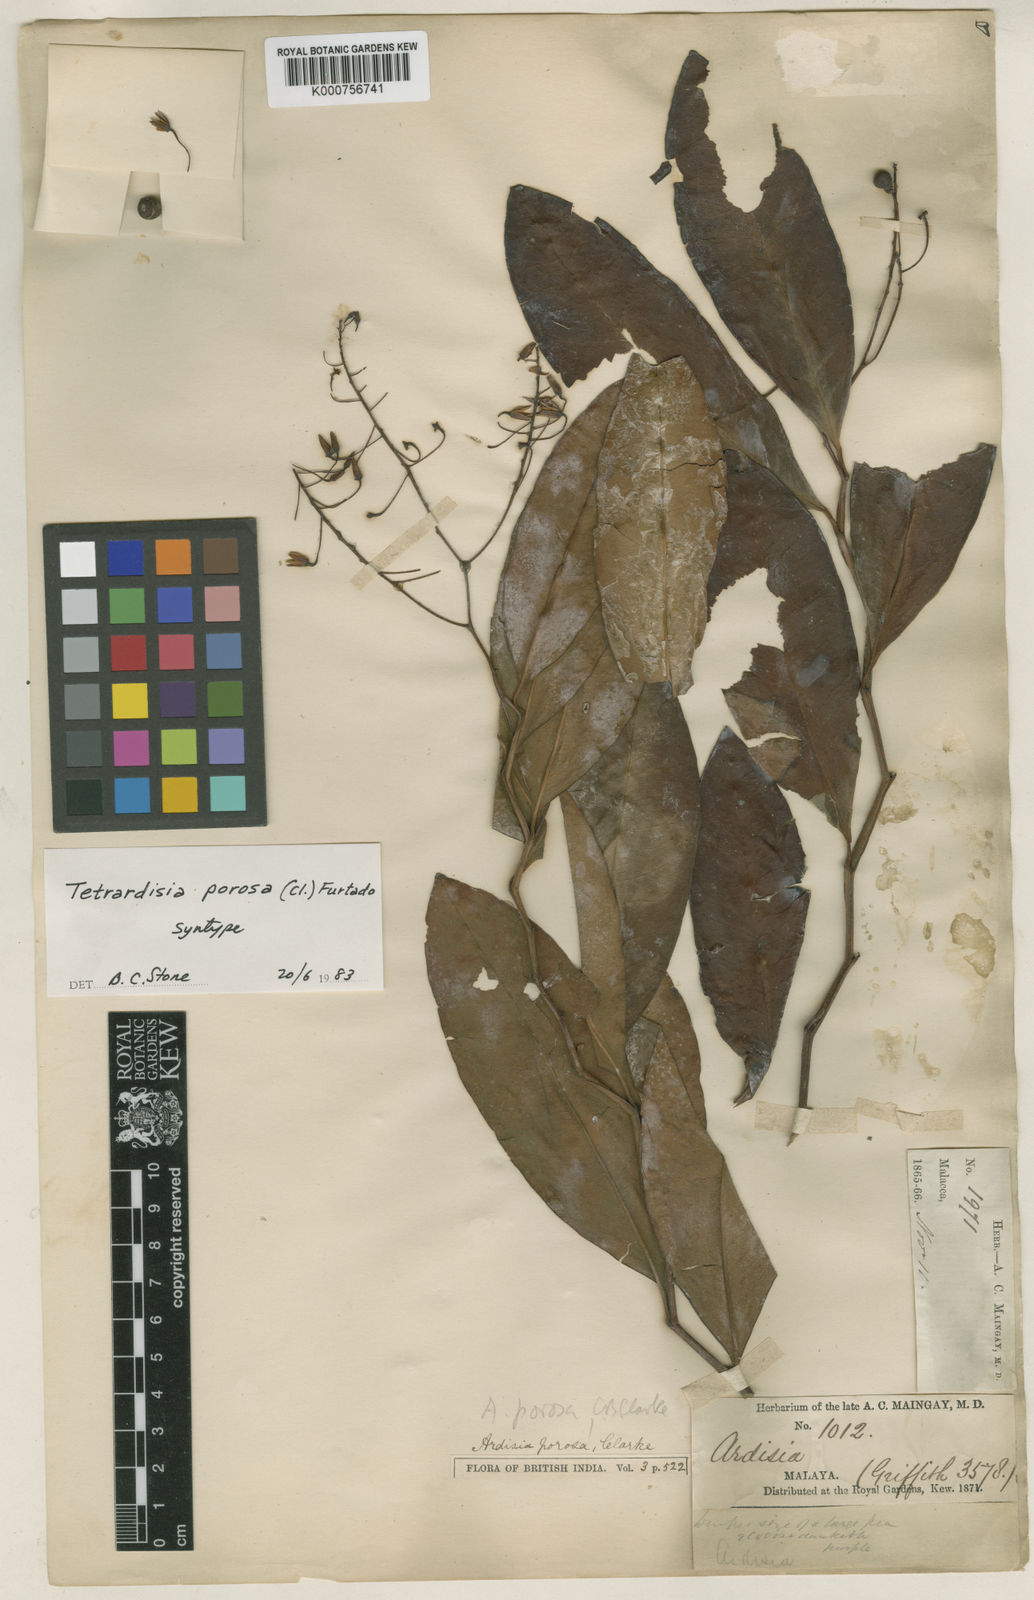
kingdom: Plantae
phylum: Tracheophyta
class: Magnoliopsida
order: Ericales
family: Primulaceae
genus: Ardisia
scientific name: Ardisia porosa
